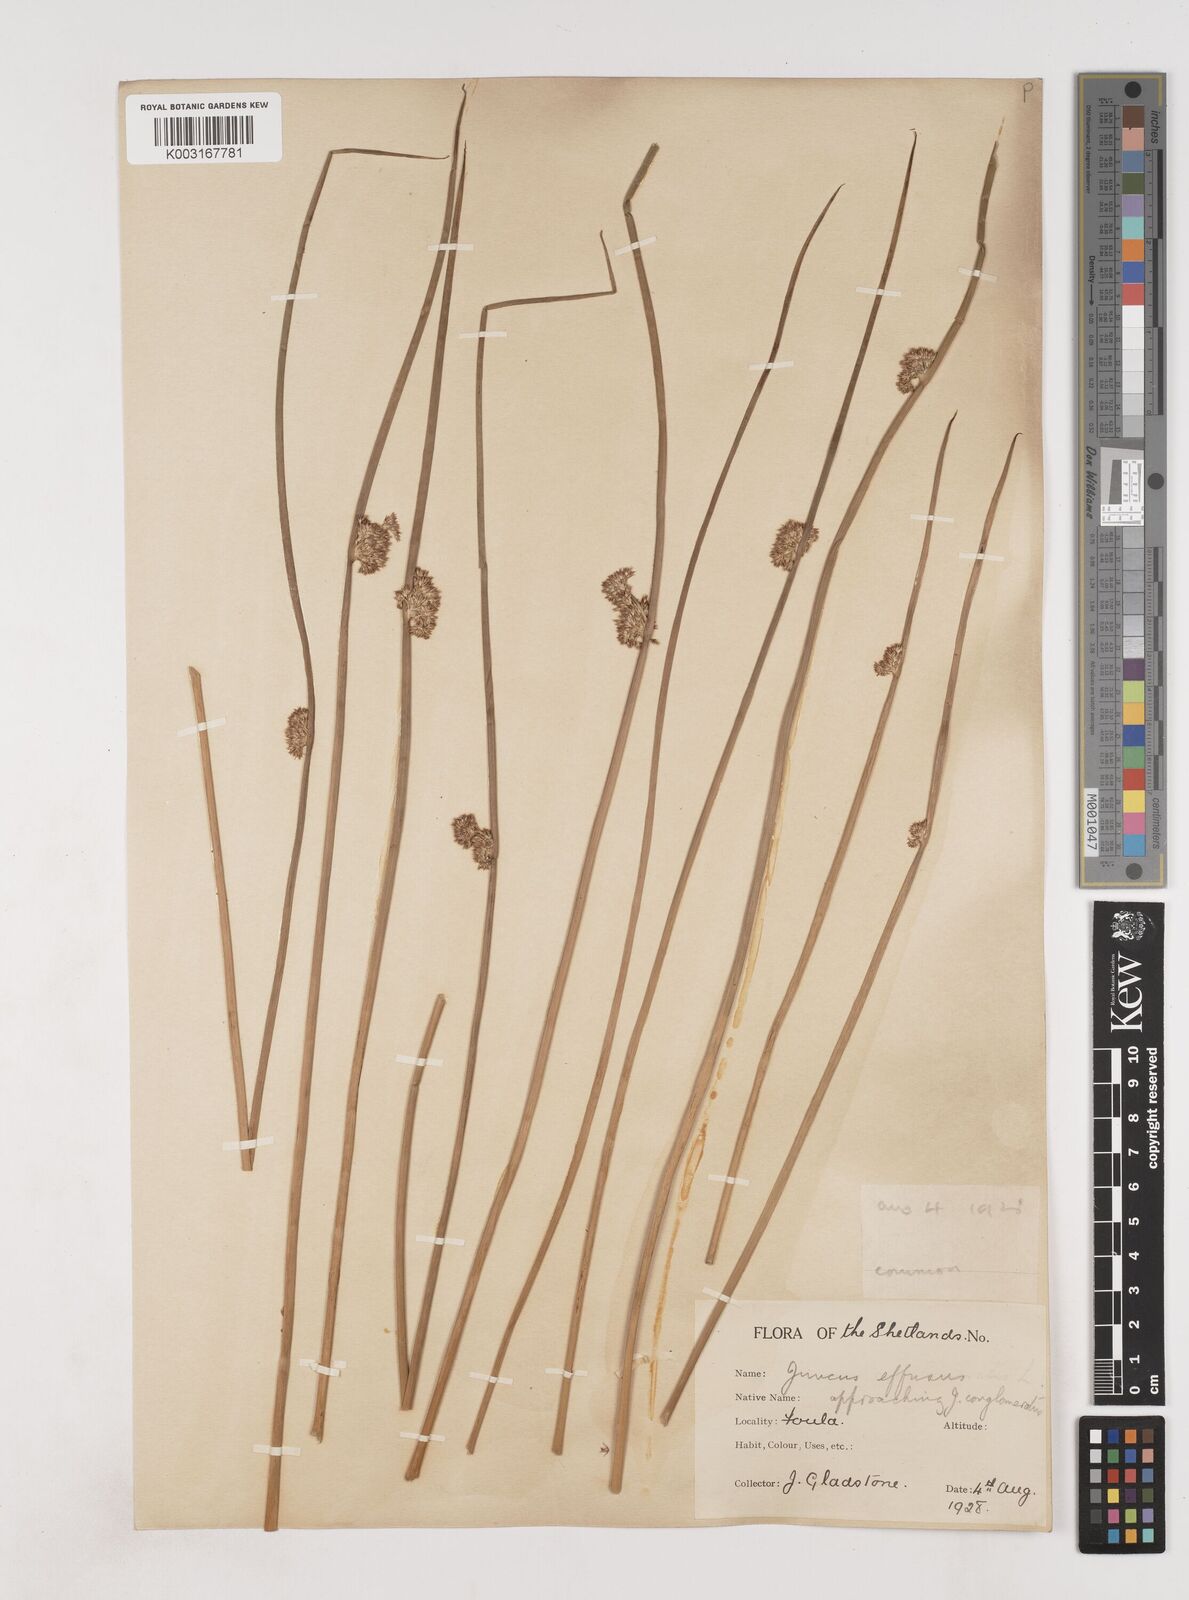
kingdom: Plantae
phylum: Tracheophyta
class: Liliopsida
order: Poales
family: Juncaceae
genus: Juncus
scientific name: Juncus effusus
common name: Soft rush
